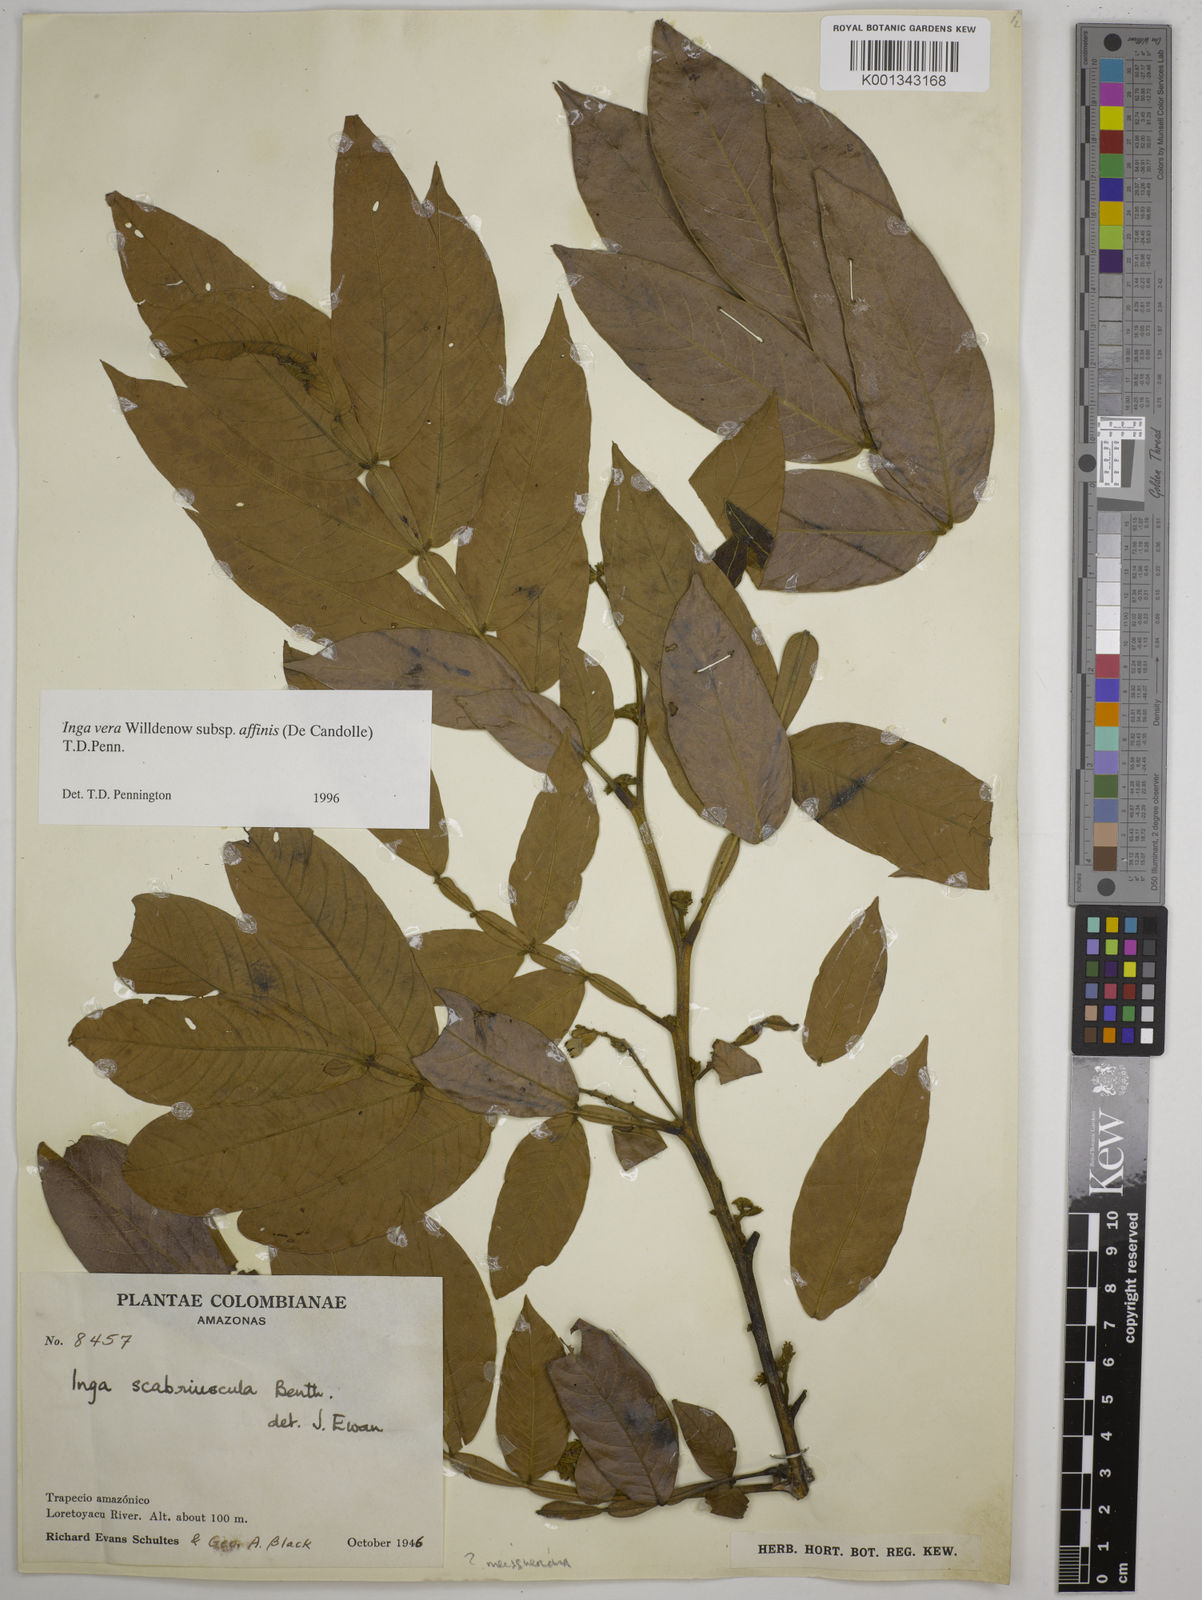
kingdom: Plantae
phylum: Tracheophyta
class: Magnoliopsida
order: Fabales
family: Fabaceae
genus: Inga
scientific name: Inga affinis
